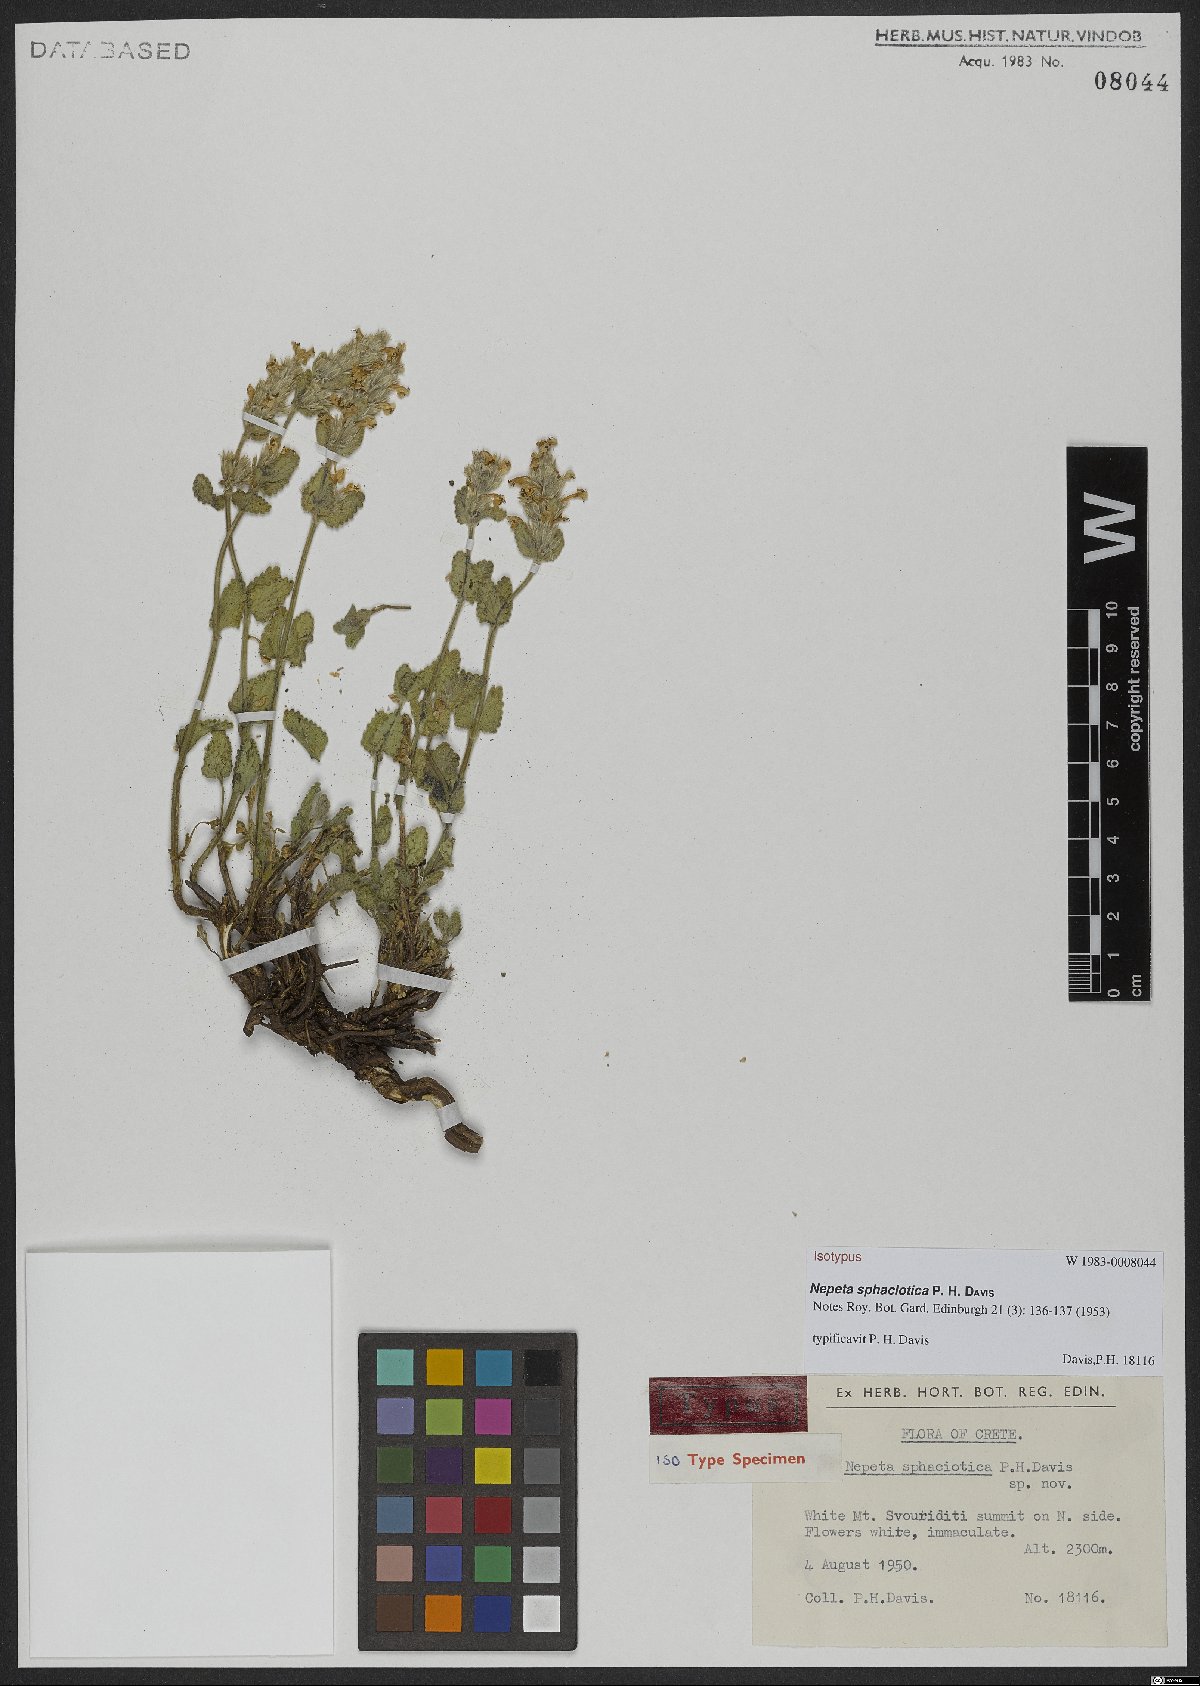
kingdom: Plantae
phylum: Tracheophyta
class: Magnoliopsida
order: Lamiales
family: Lamiaceae
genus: Nepeta
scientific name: Nepeta sphaciotica
